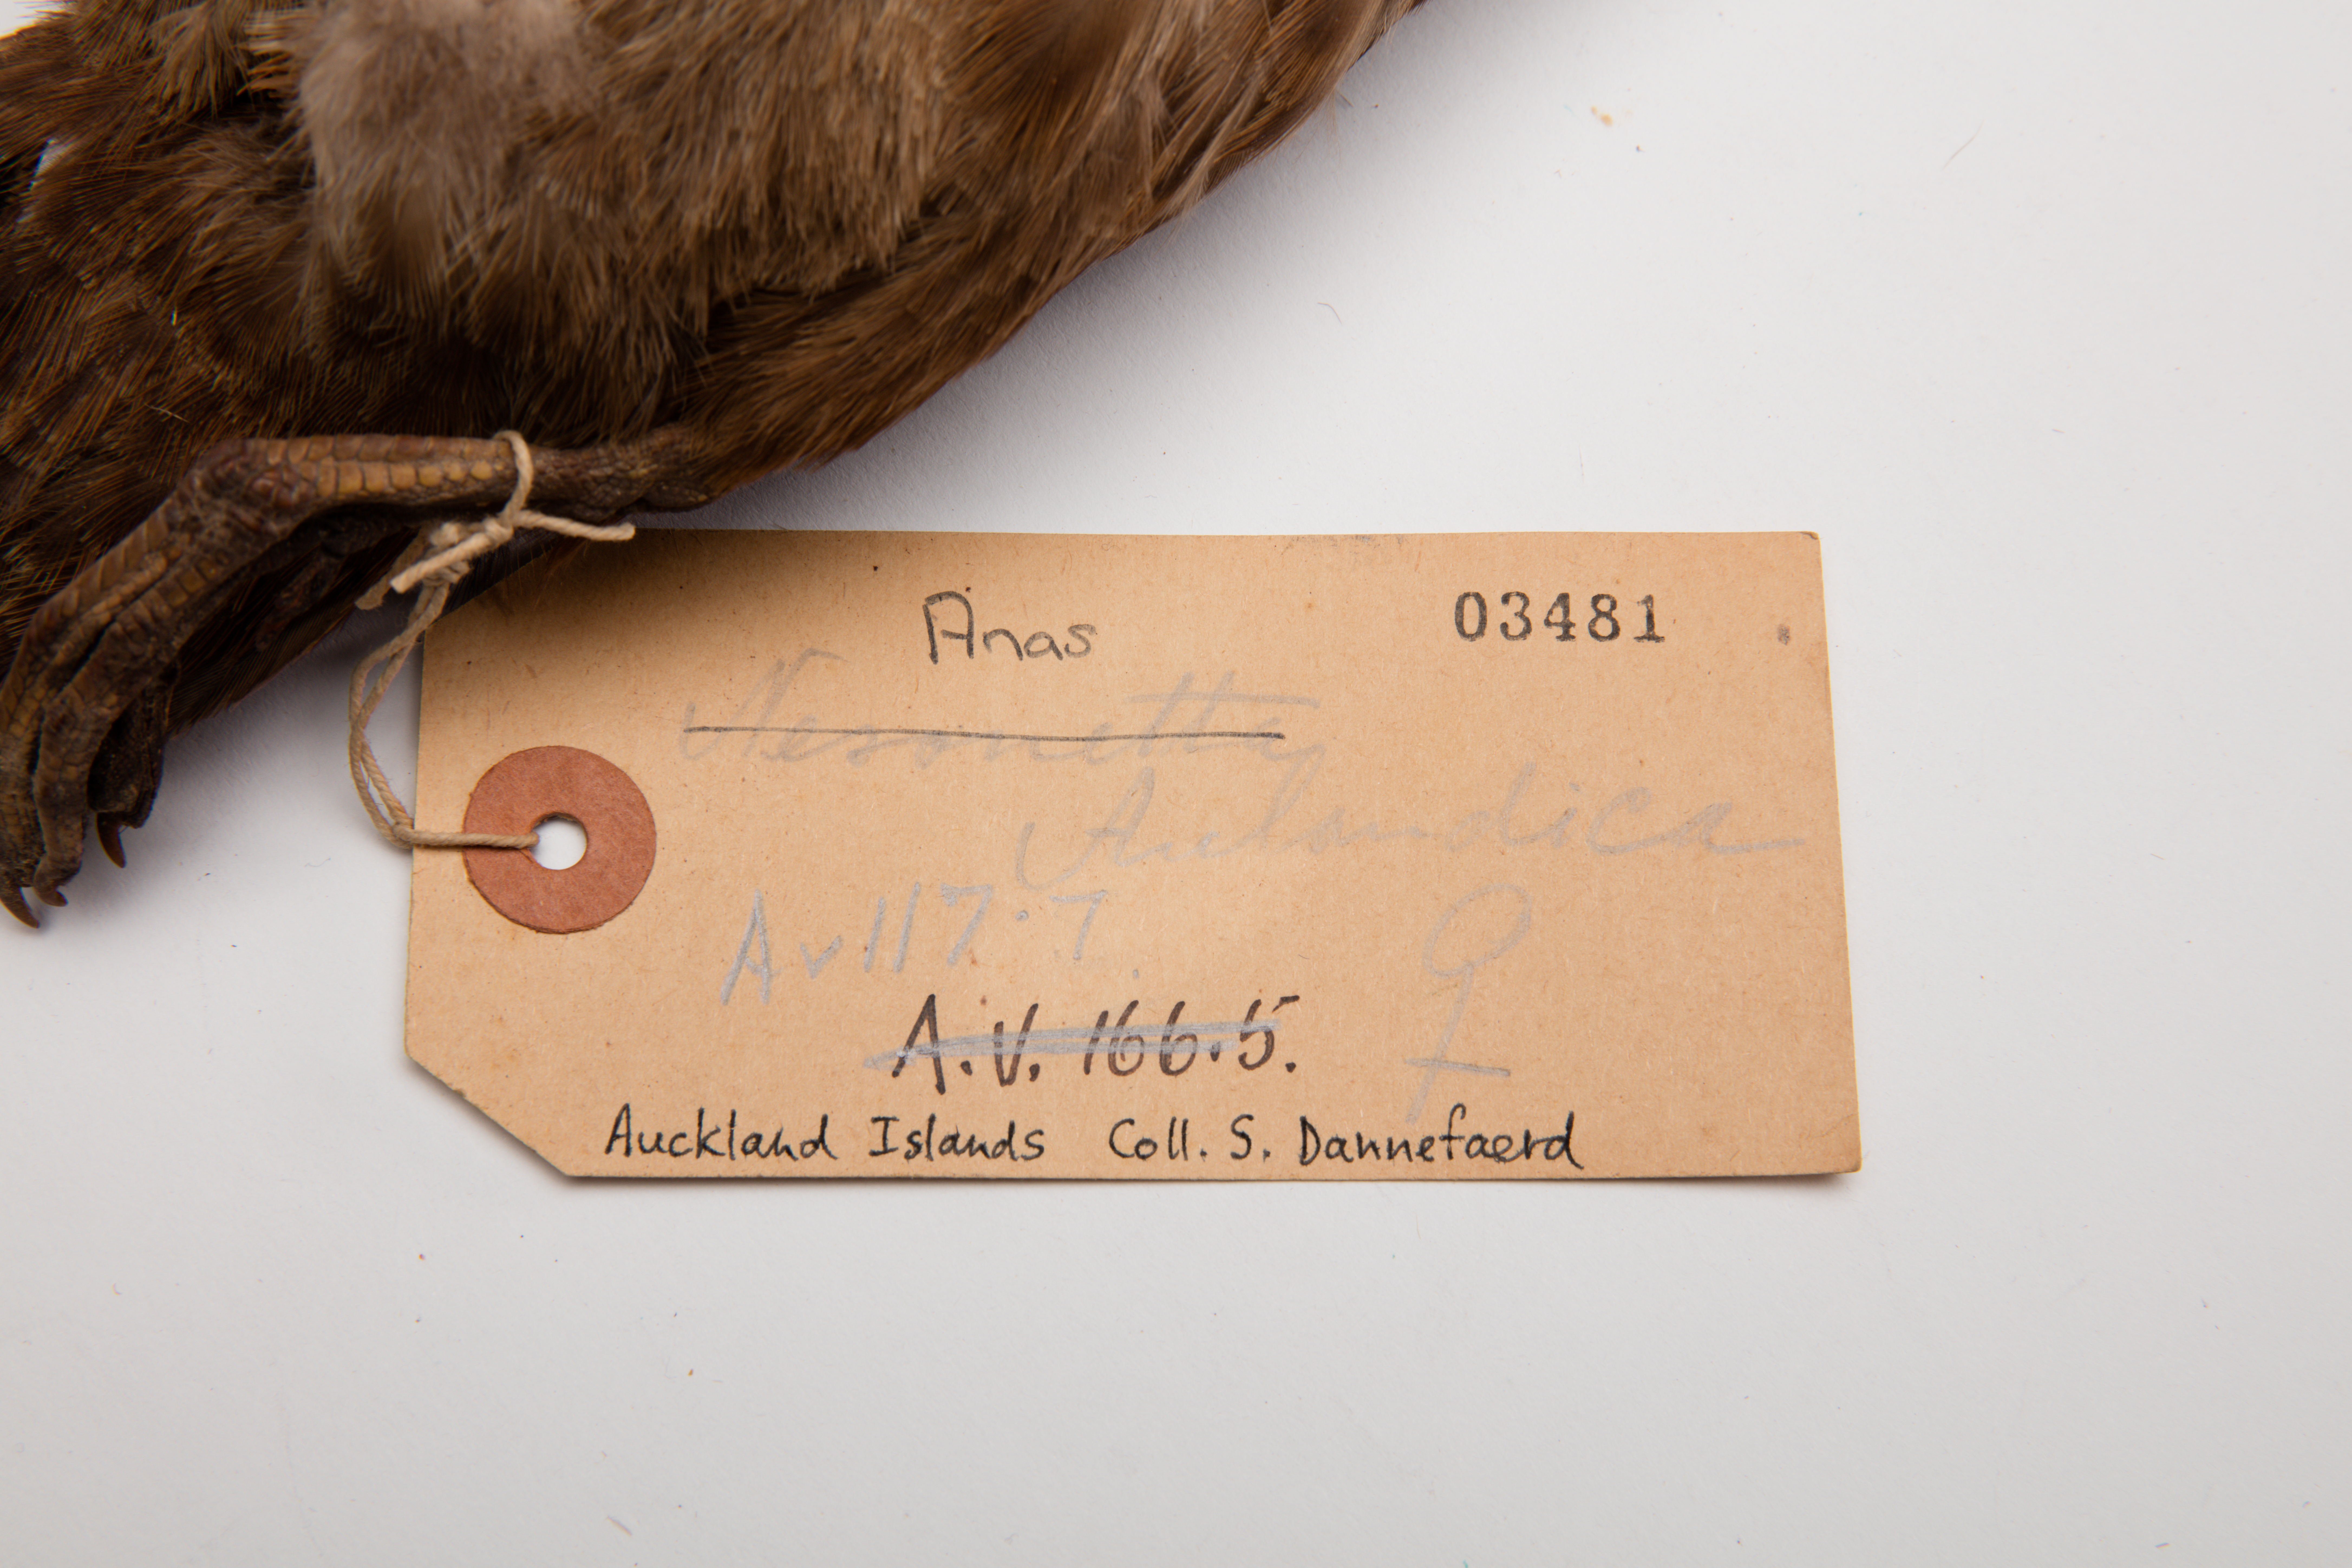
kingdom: Animalia
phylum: Chordata
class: Aves
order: Anseriformes
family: Anatidae
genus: Anas
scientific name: Anas aucklandica
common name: Auckland teal
